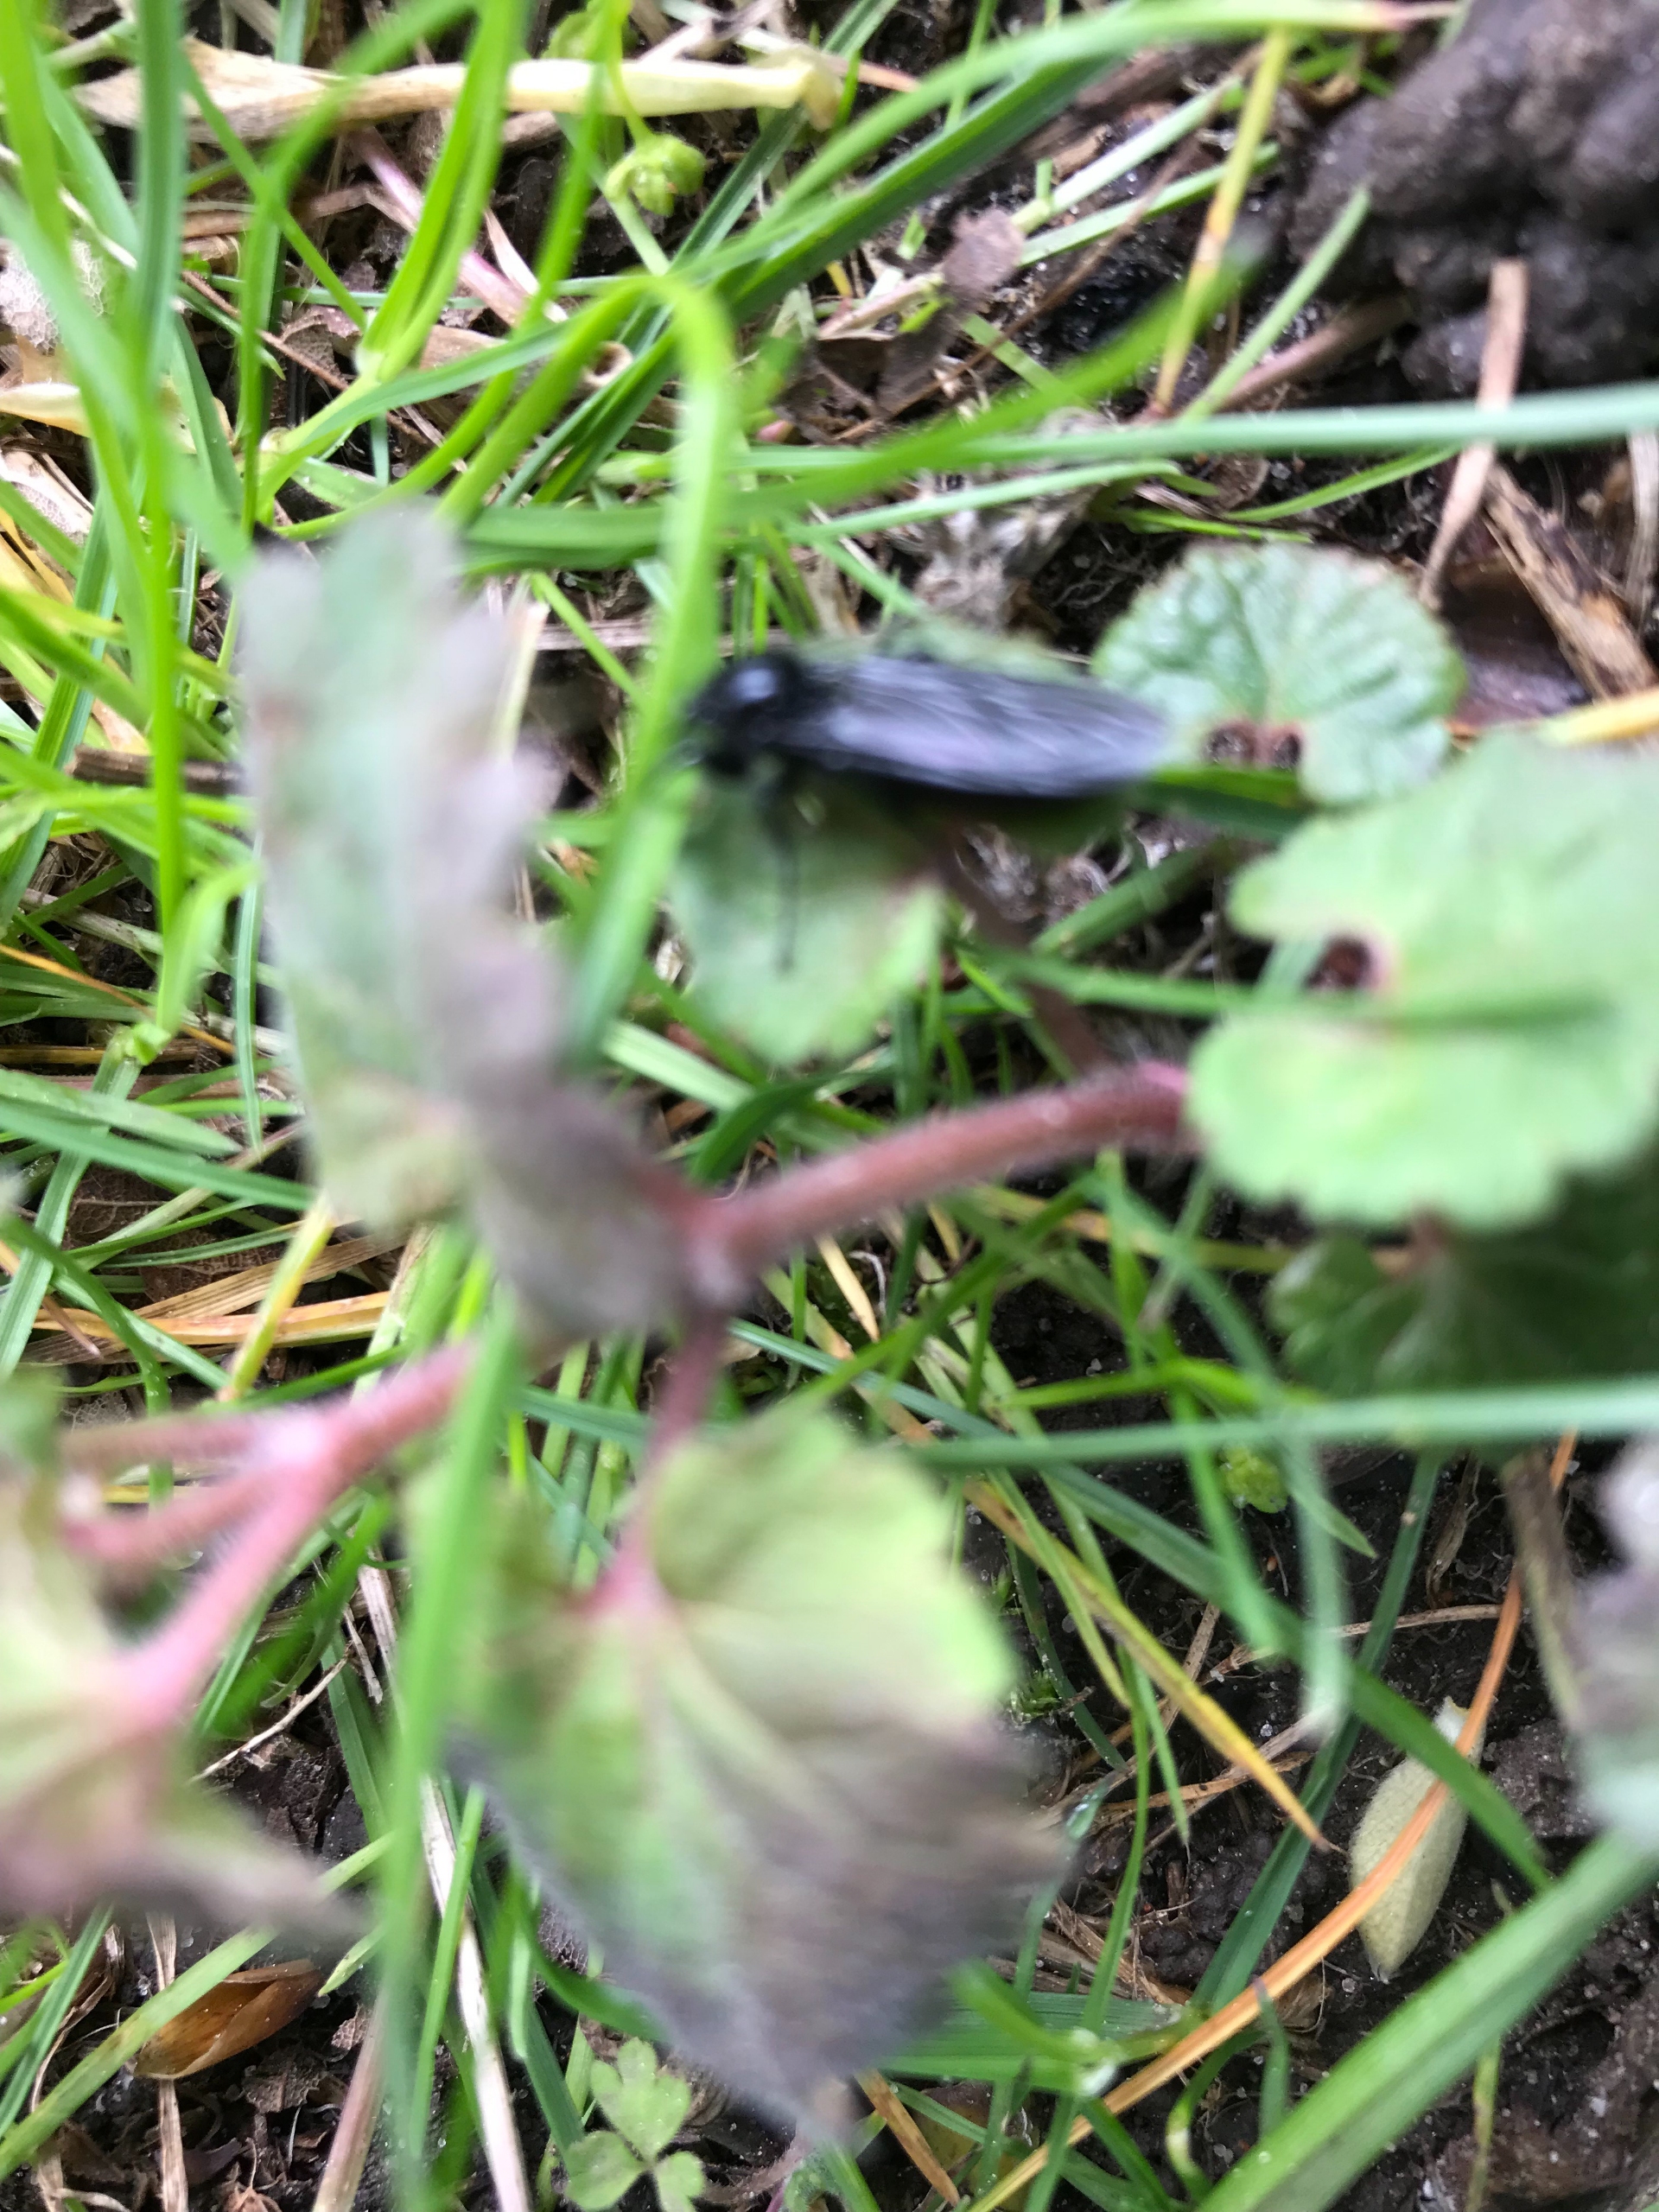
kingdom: Animalia
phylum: Arthropoda
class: Insecta
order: Diptera
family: Bibionidae
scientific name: Bibionidae
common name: Hårmyg
